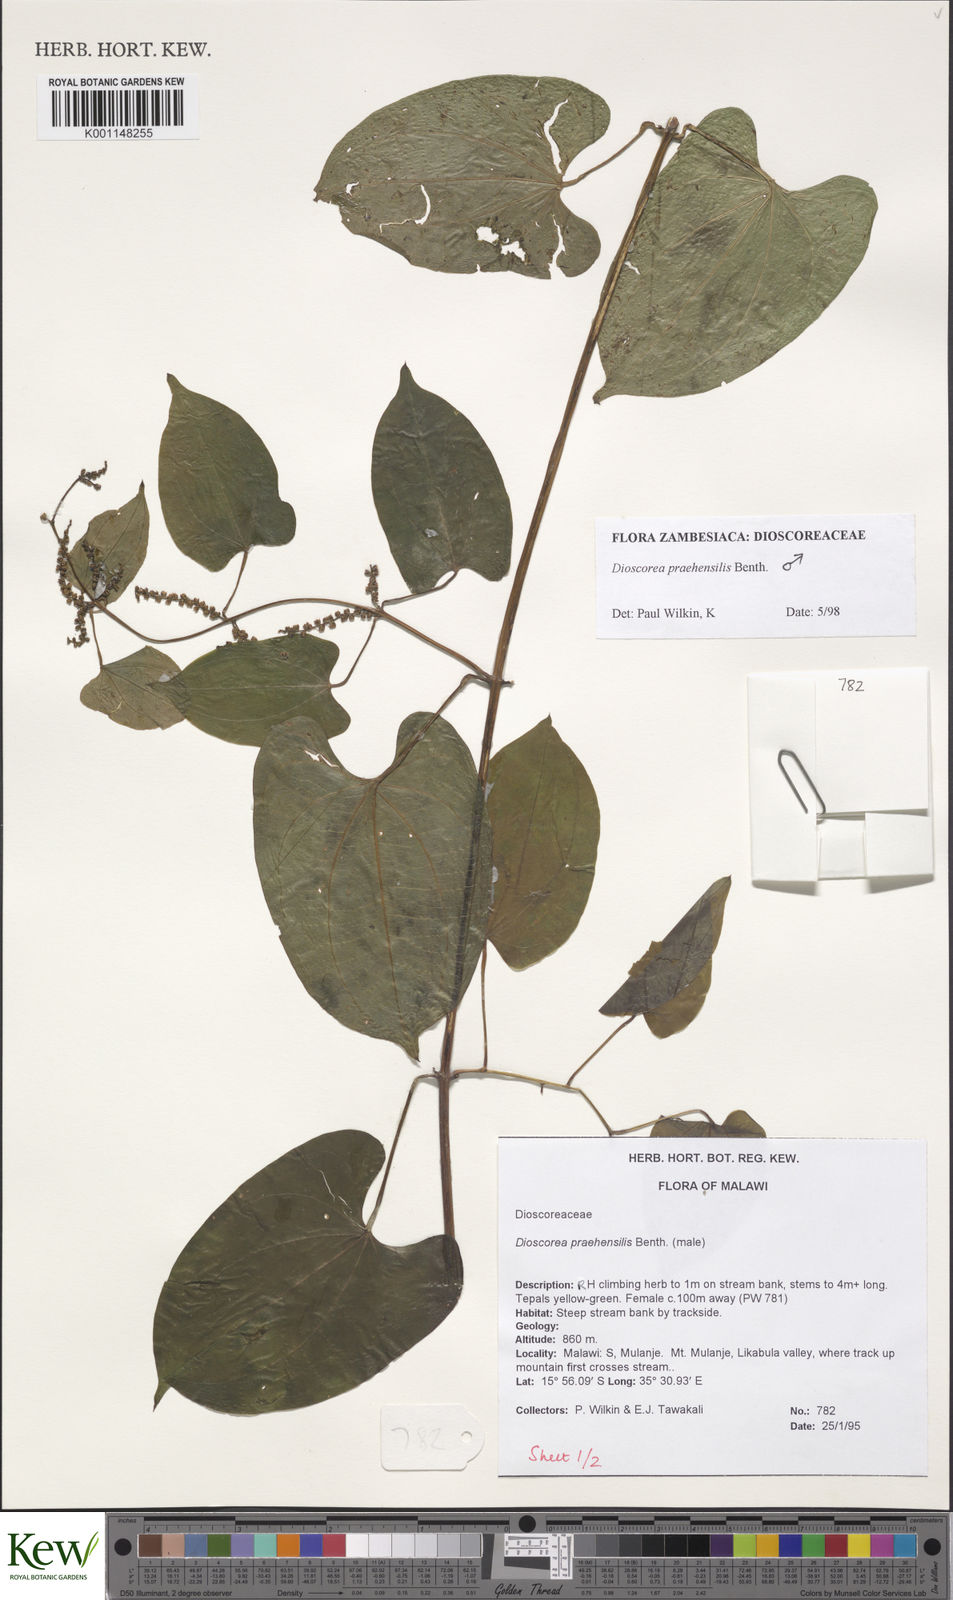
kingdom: Plantae
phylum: Tracheophyta
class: Liliopsida
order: Dioscoreales
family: Dioscoreaceae
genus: Dioscorea
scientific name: Dioscorea praehensilis
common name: Bush yam
